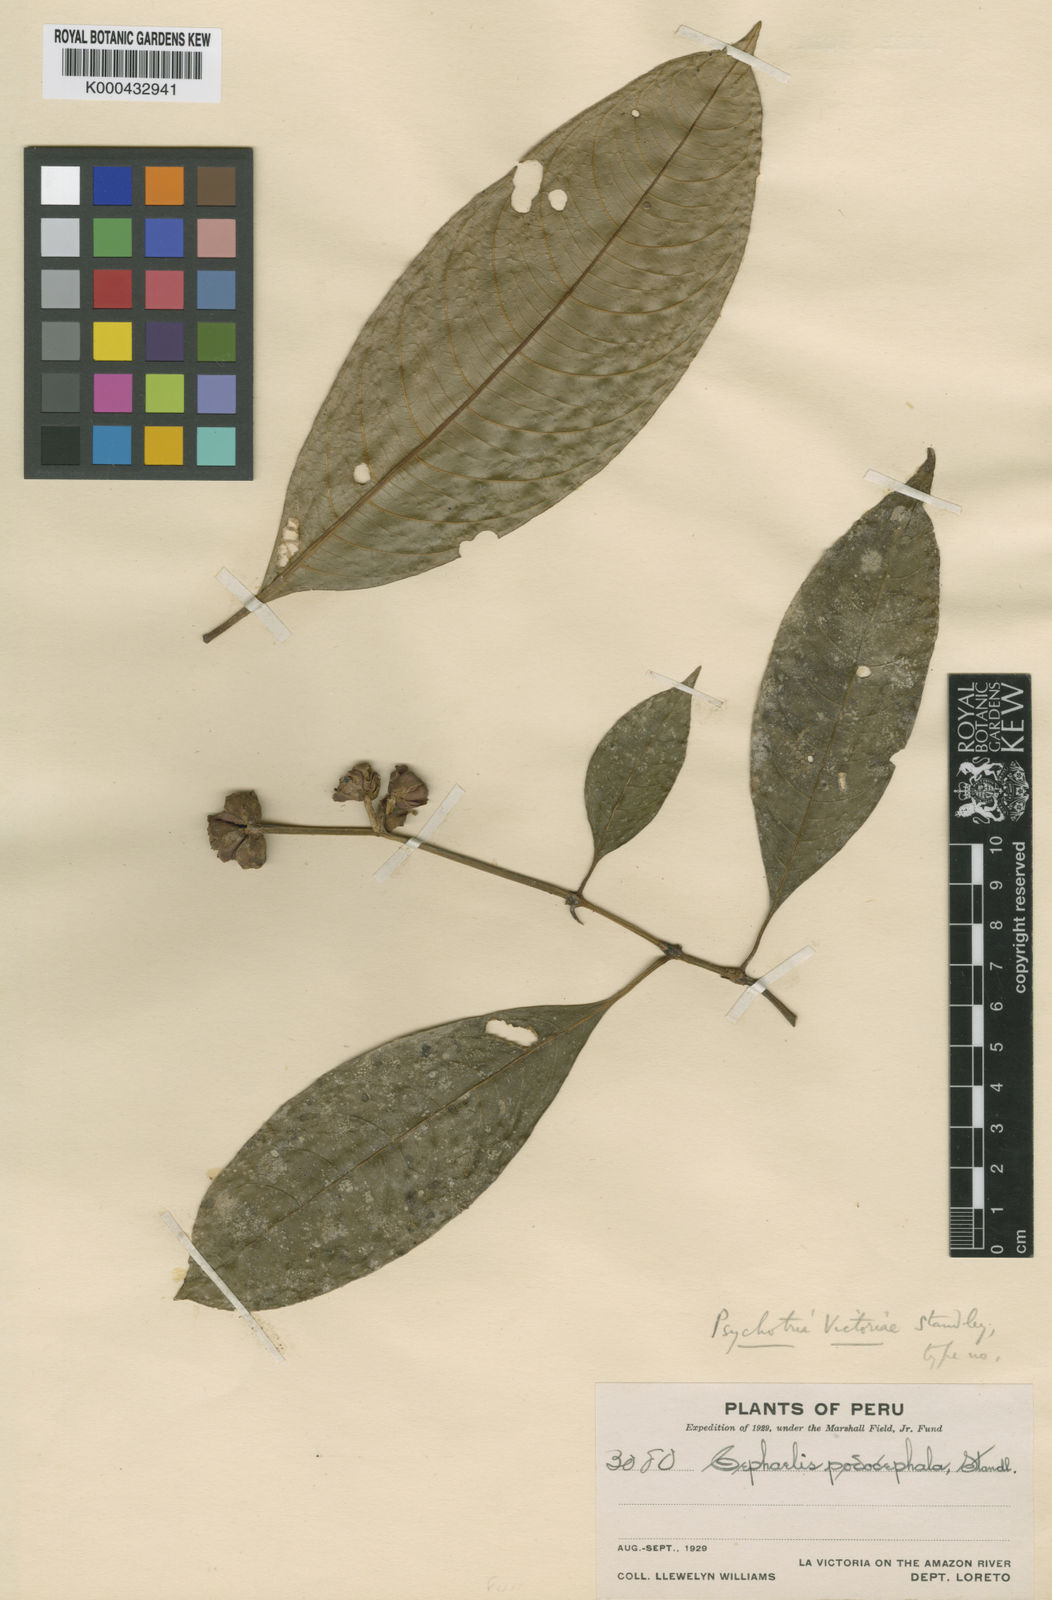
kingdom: Plantae
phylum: Tracheophyta
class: Magnoliopsida
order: Gentianales
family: Rubiaceae
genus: Palicourea
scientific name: Palicourea caerulea
